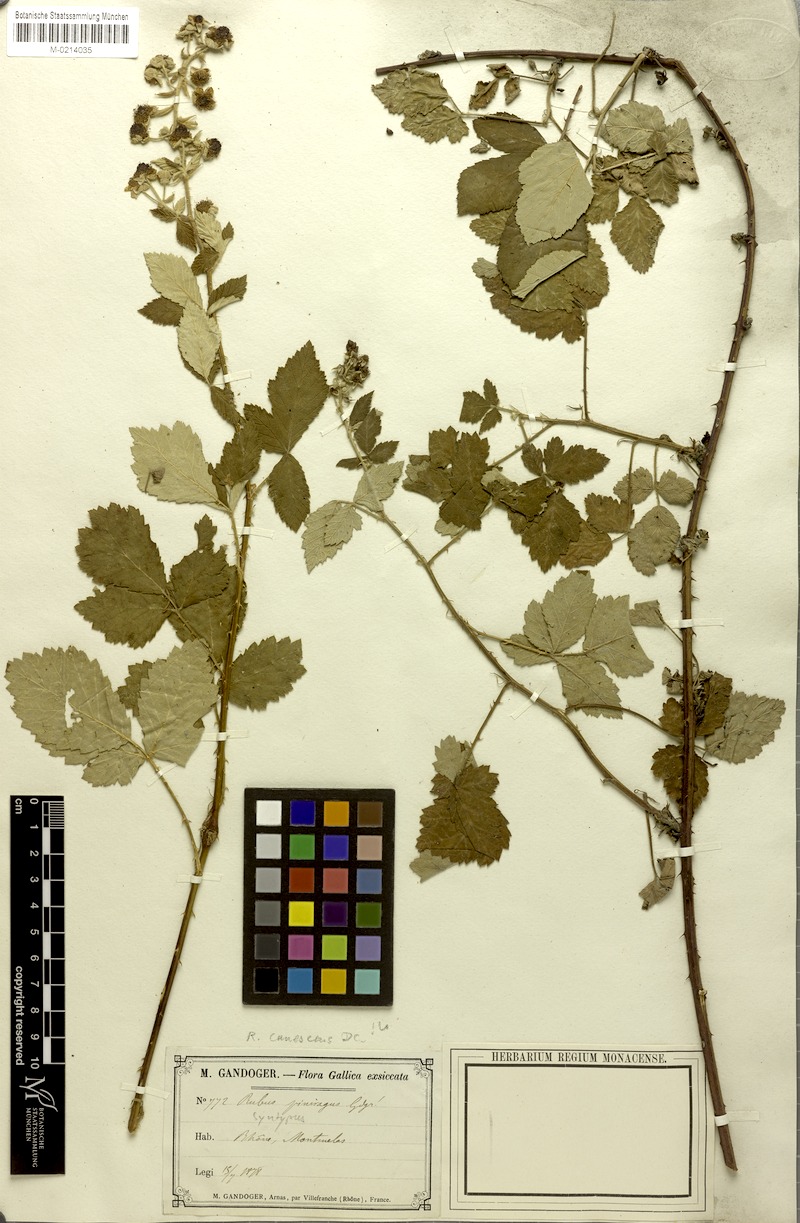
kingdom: Plantae
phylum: Tracheophyta
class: Magnoliopsida
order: Rosales
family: Rosaceae
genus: Rubus
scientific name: Rubus canescens
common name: Wooly blackberry
